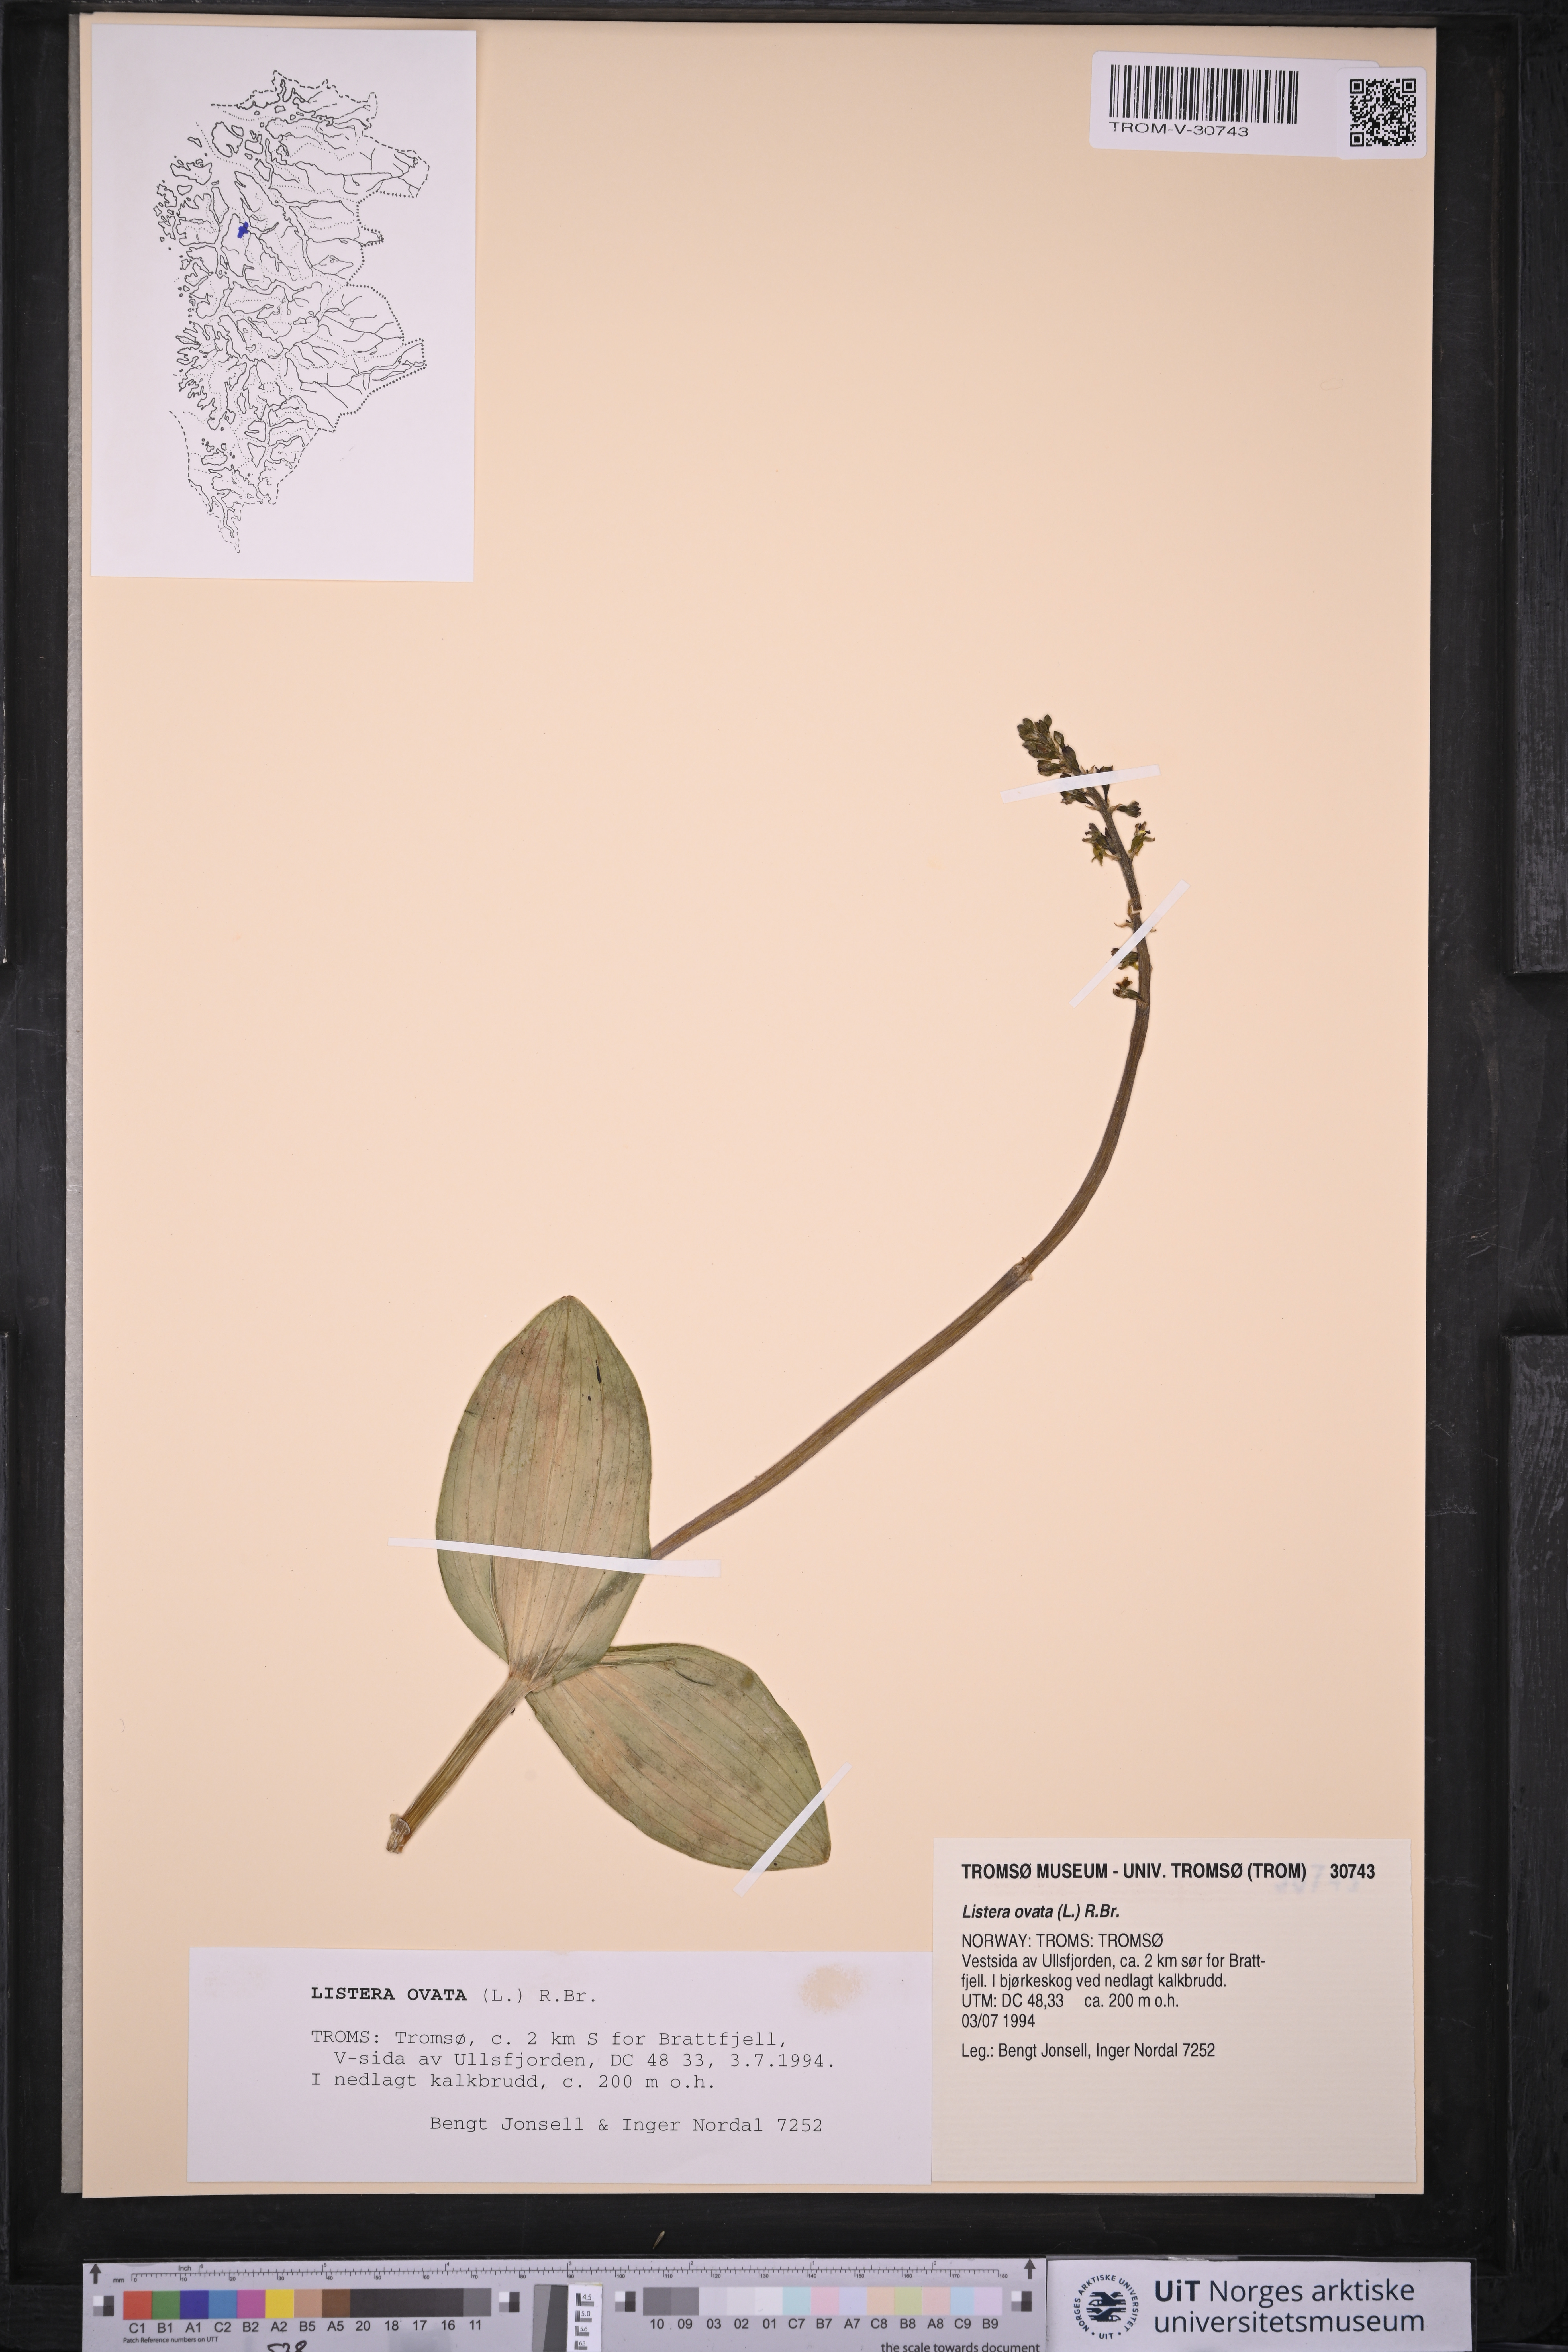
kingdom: Plantae
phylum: Tracheophyta
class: Liliopsida
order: Asparagales
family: Orchidaceae
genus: Neottia
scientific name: Neottia ovata
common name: Common twayblade
